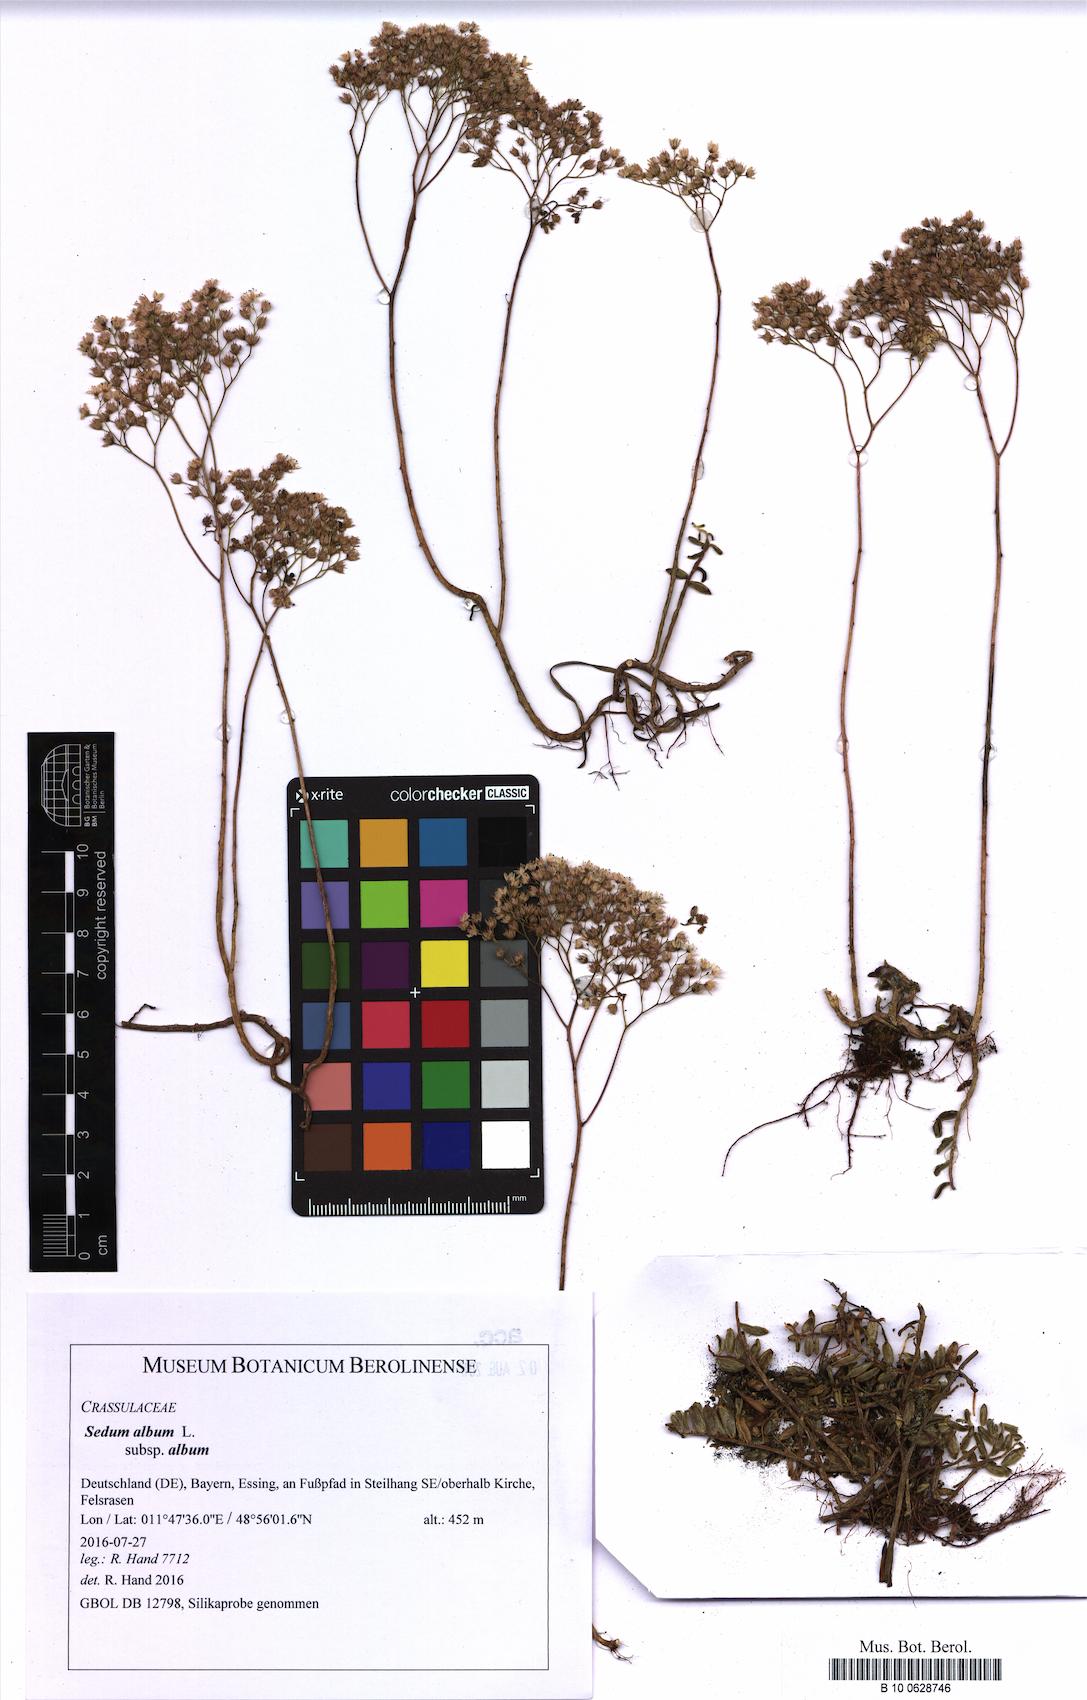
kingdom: Plantae
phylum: Tracheophyta
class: Magnoliopsida
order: Saxifragales
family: Crassulaceae
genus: Sedum
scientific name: Sedum album
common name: White stonecrop
